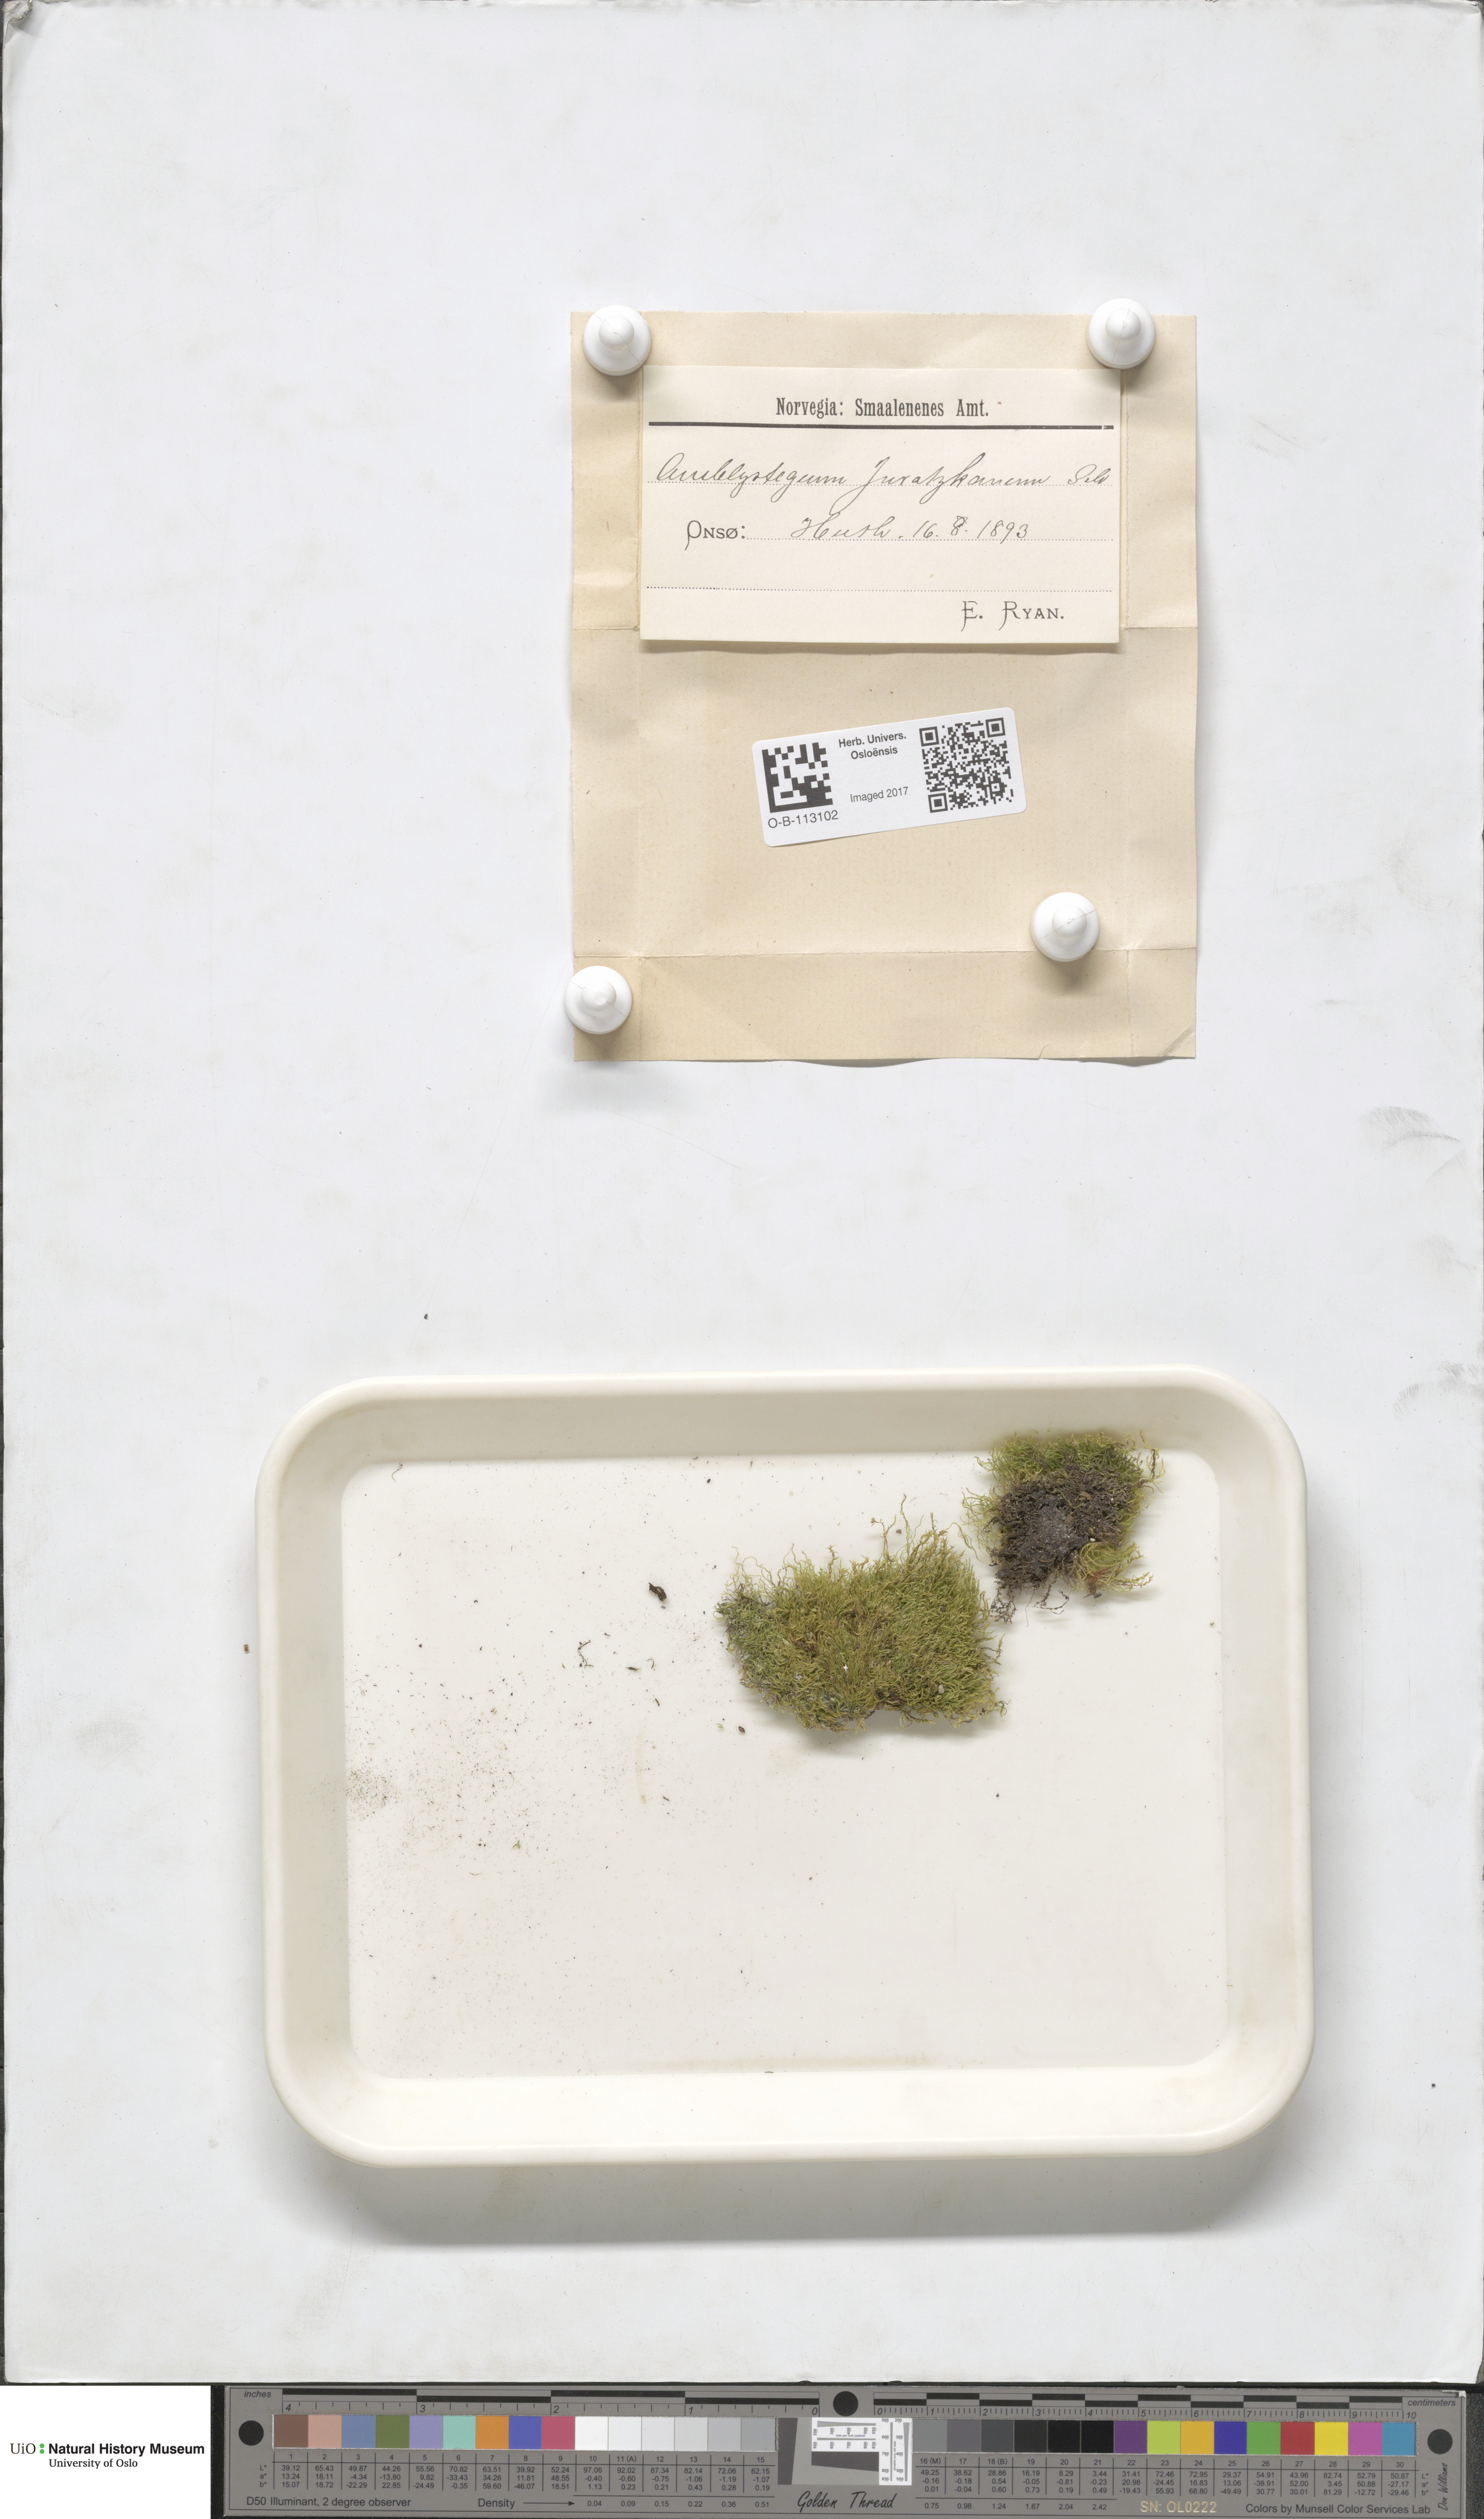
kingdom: Plantae
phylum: Bryophyta
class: Bryopsida
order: Hypnales
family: Amblystegiaceae
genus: Amblystegium
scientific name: Amblystegium serpens
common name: Jurkatzka's feather moss
